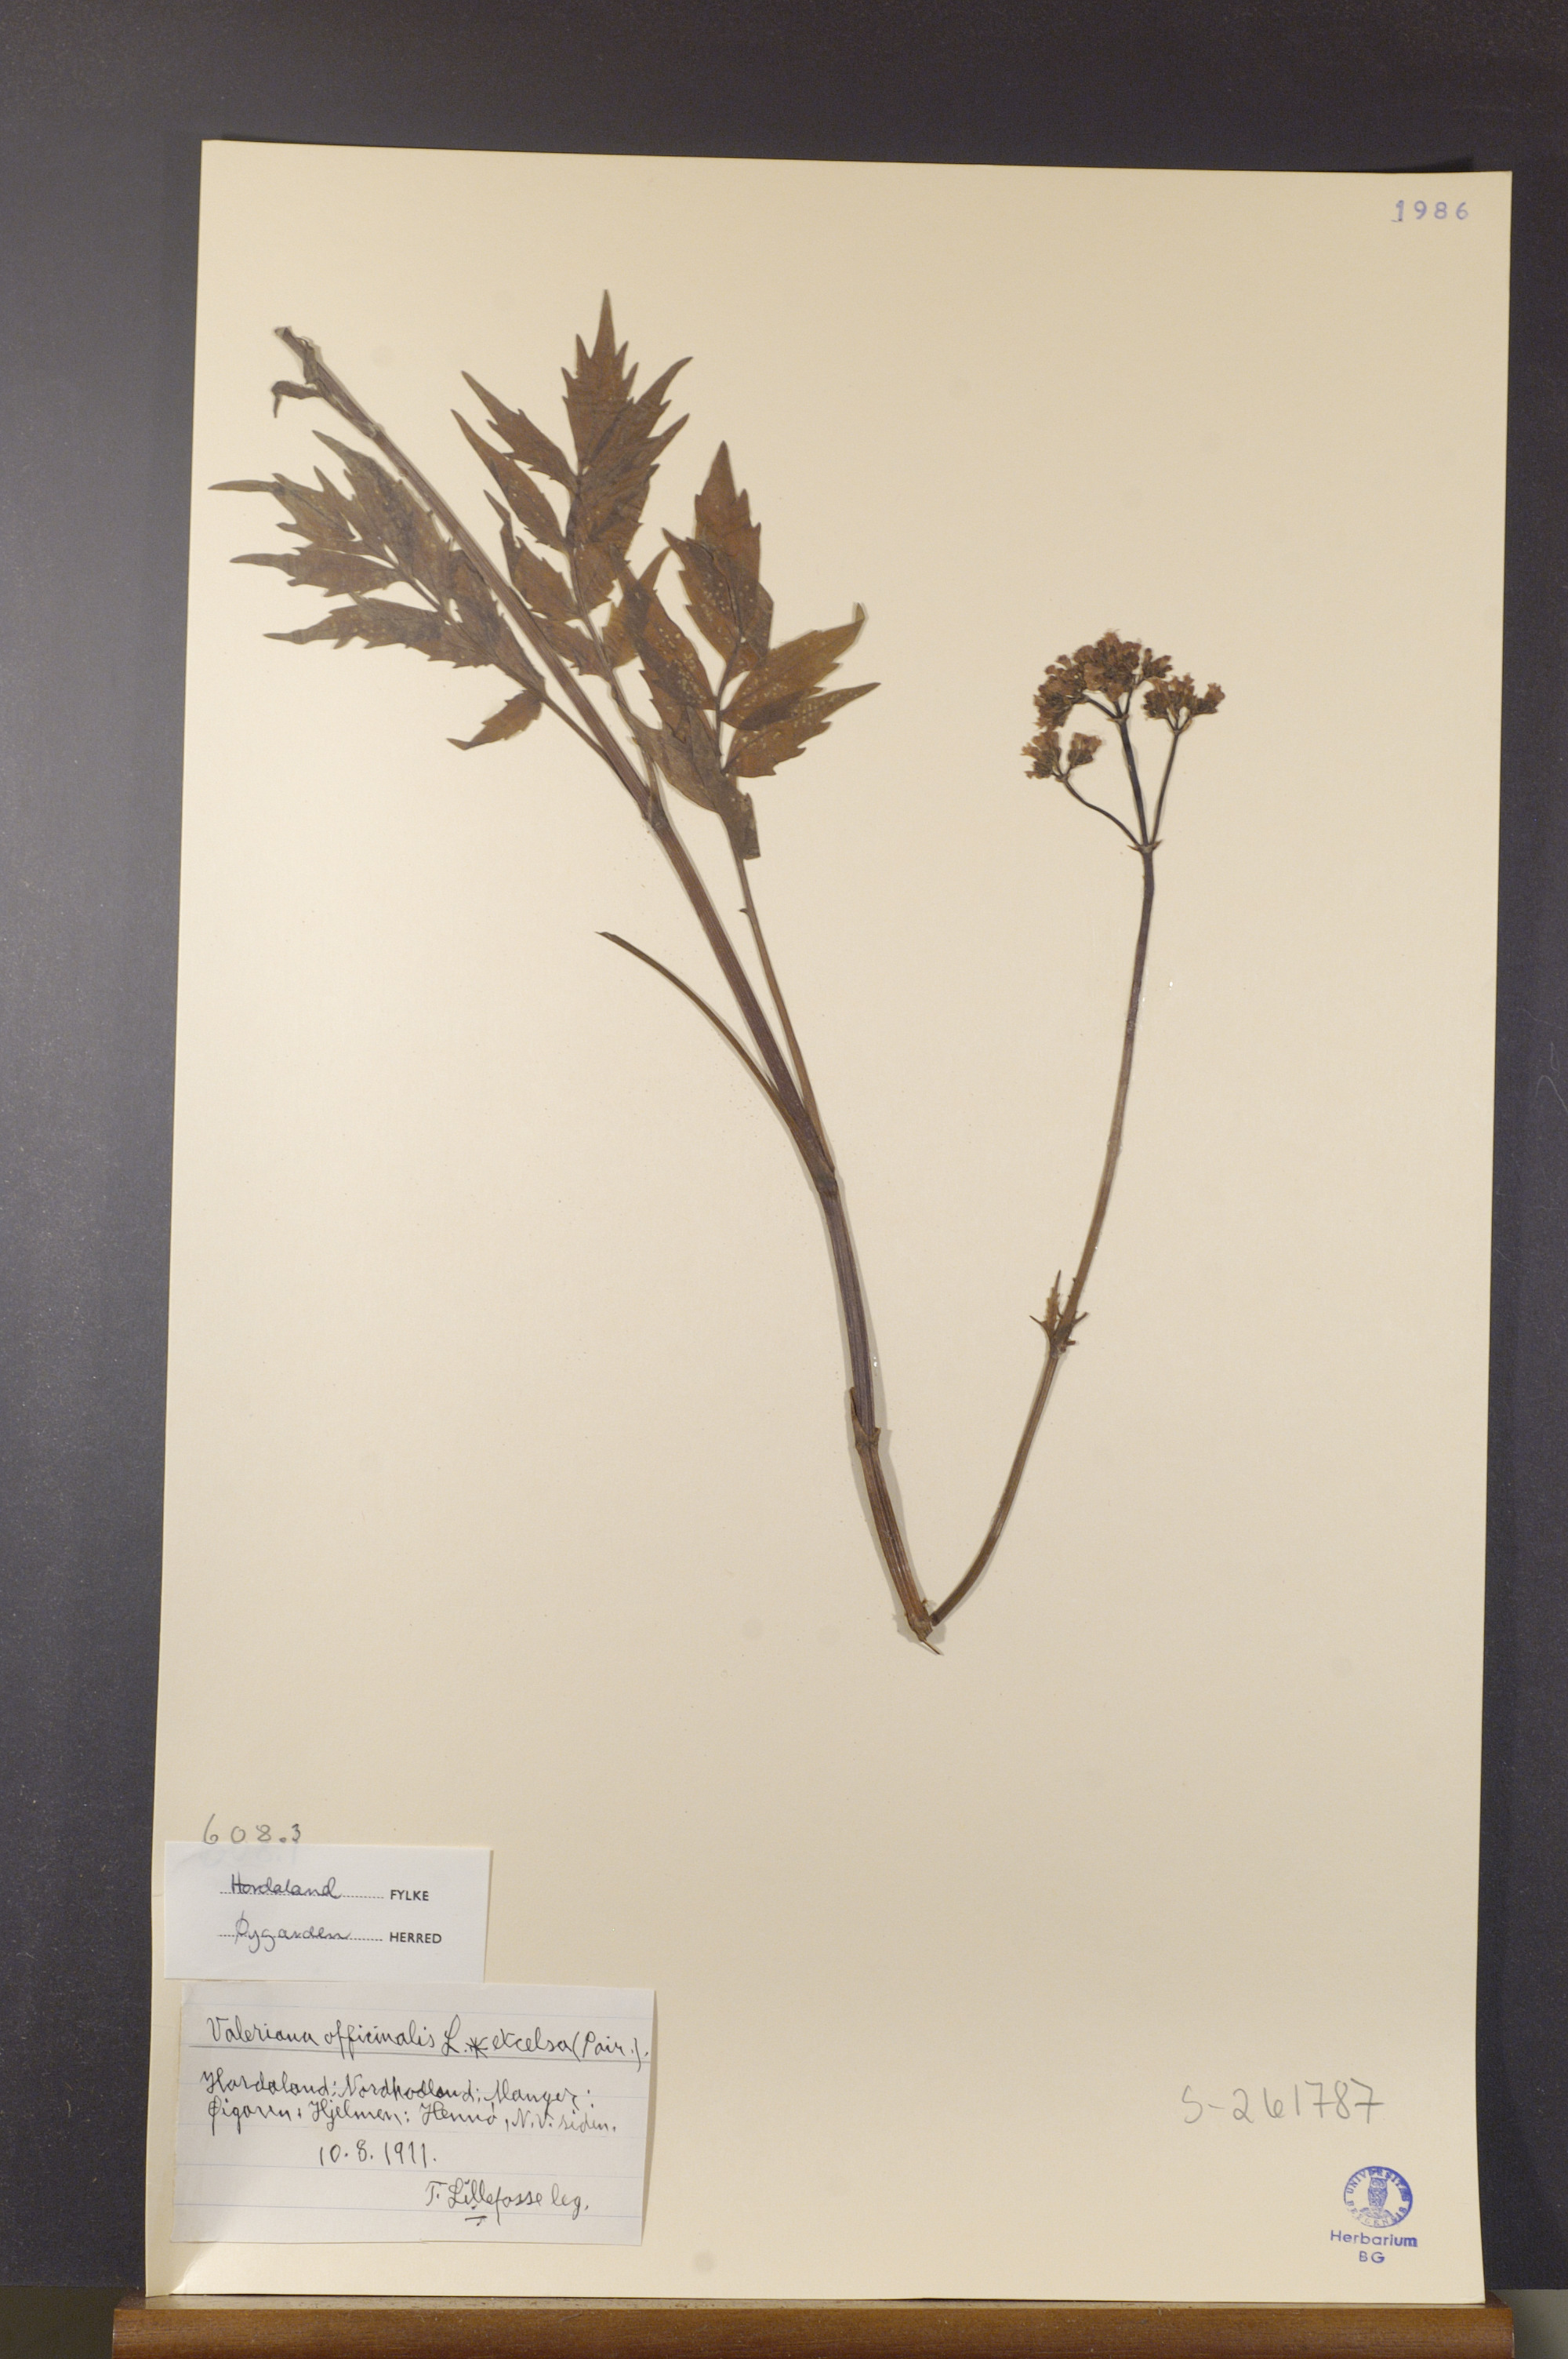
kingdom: Plantae
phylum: Tracheophyta
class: Magnoliopsida
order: Dipsacales
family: Caprifoliaceae
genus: Valeriana
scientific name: Valeriana sambucifolia
